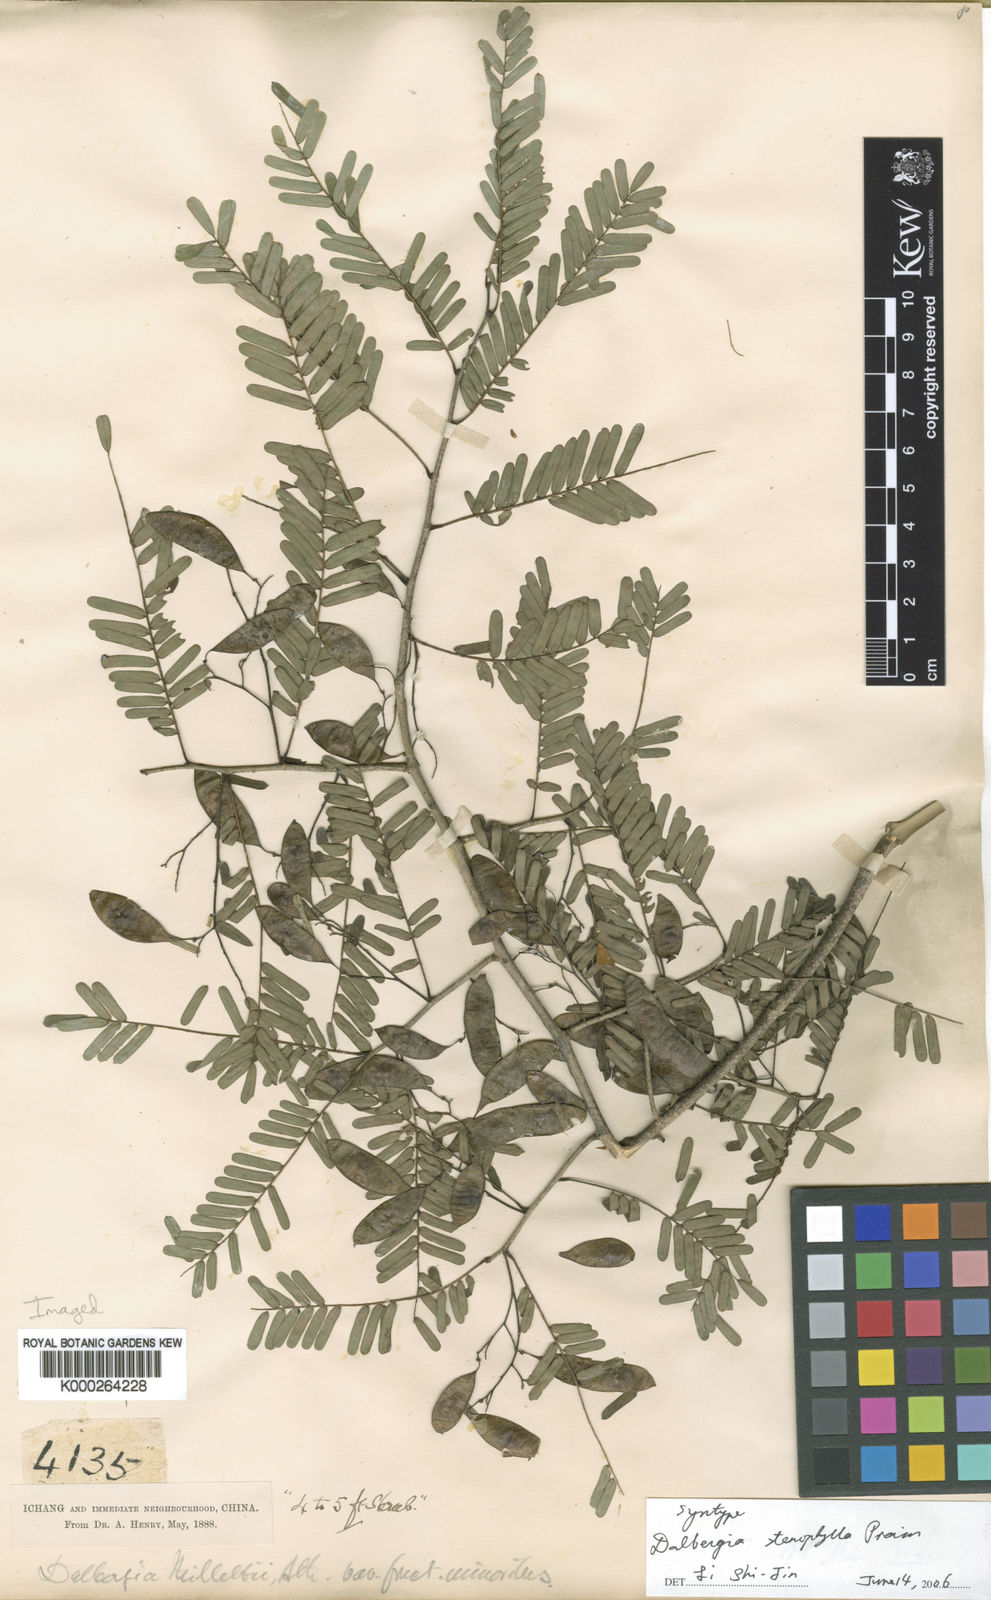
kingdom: Plantae
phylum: Tracheophyta
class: Magnoliopsida
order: Fabales
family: Fabaceae
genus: Dalbergia
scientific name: Dalbergia stenophylla
